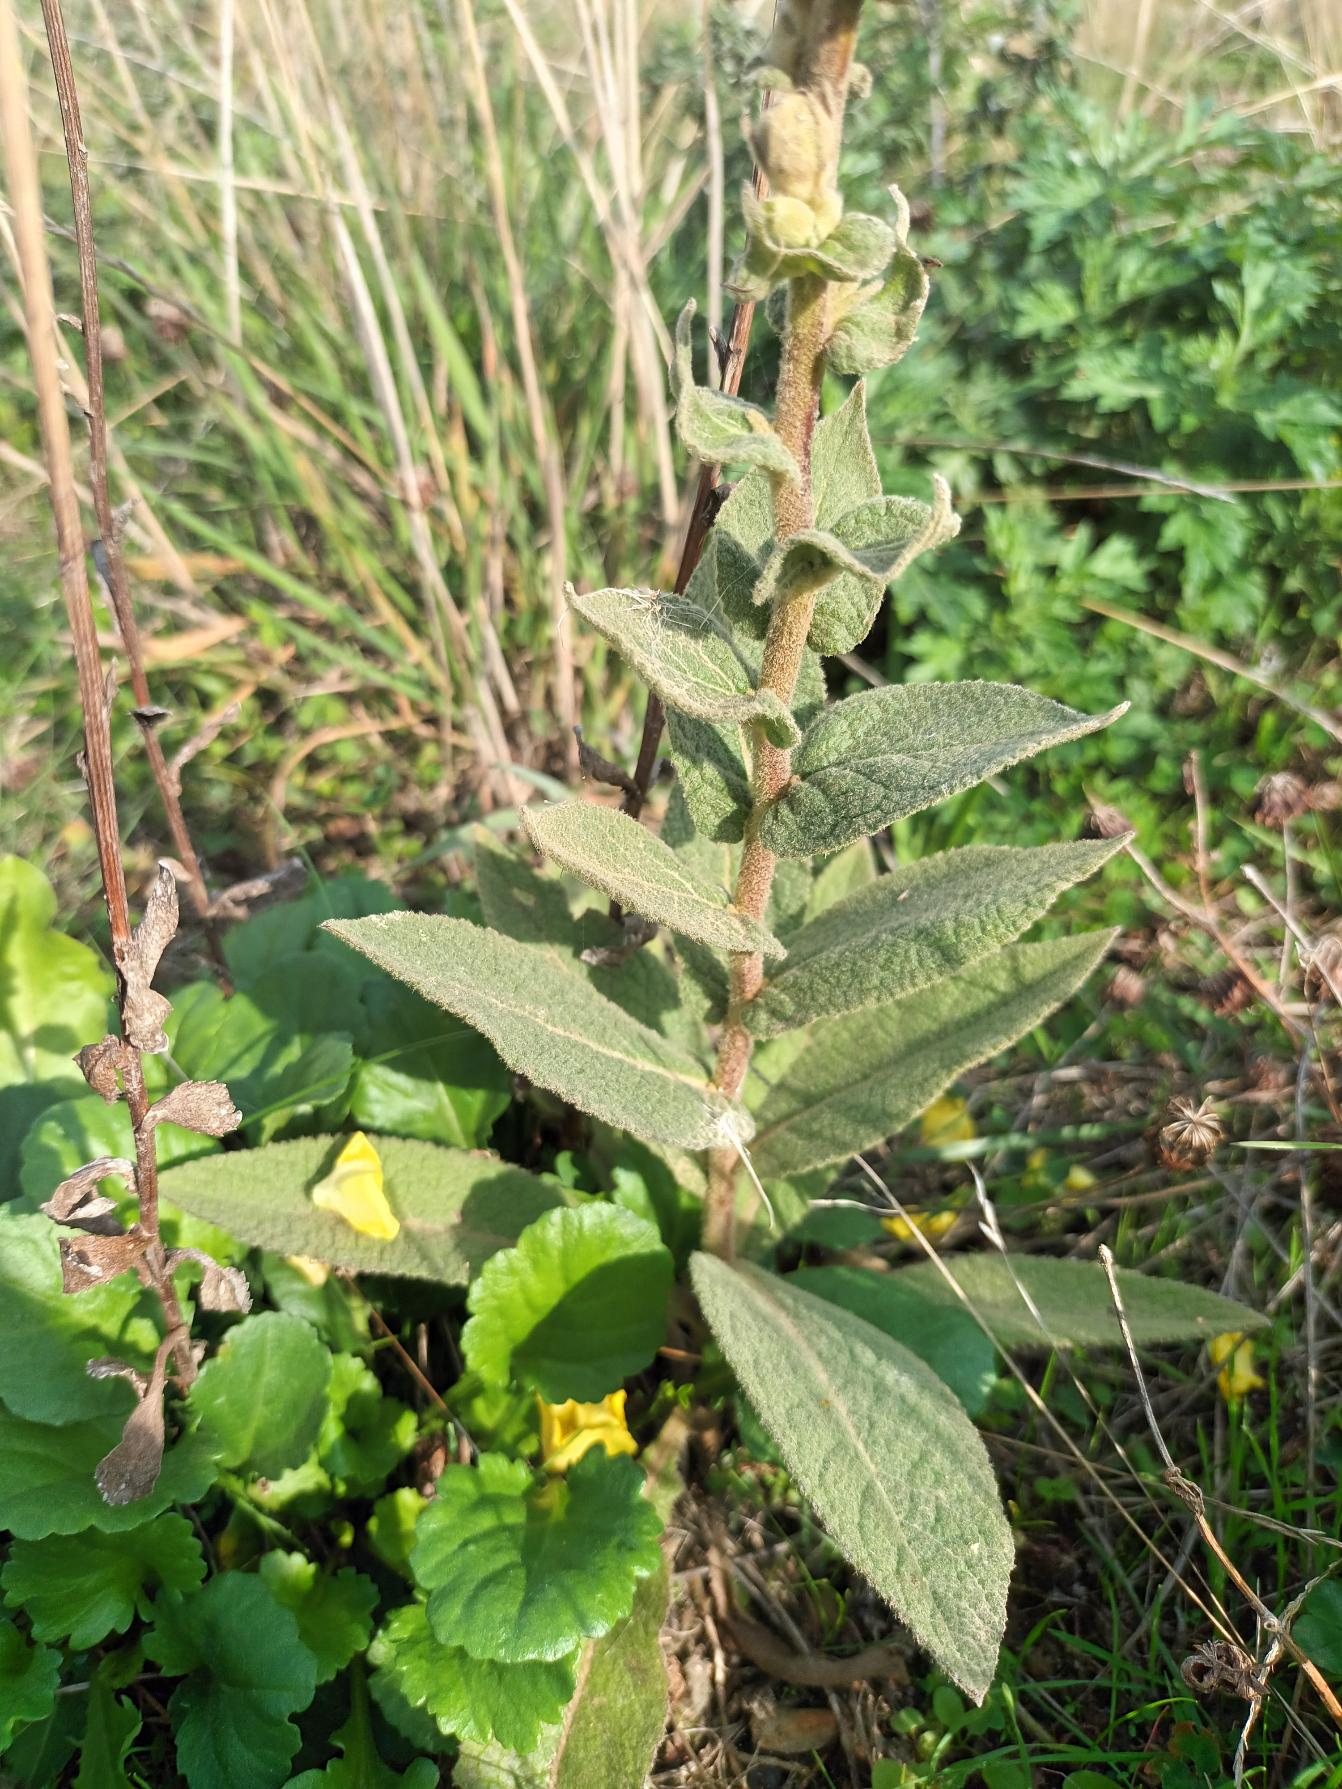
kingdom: Plantae
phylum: Tracheophyta
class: Magnoliopsida
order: Lamiales
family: Scrophulariaceae
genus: Verbascum
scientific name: Verbascum phlomoides
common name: Hjertebladet kongelys
